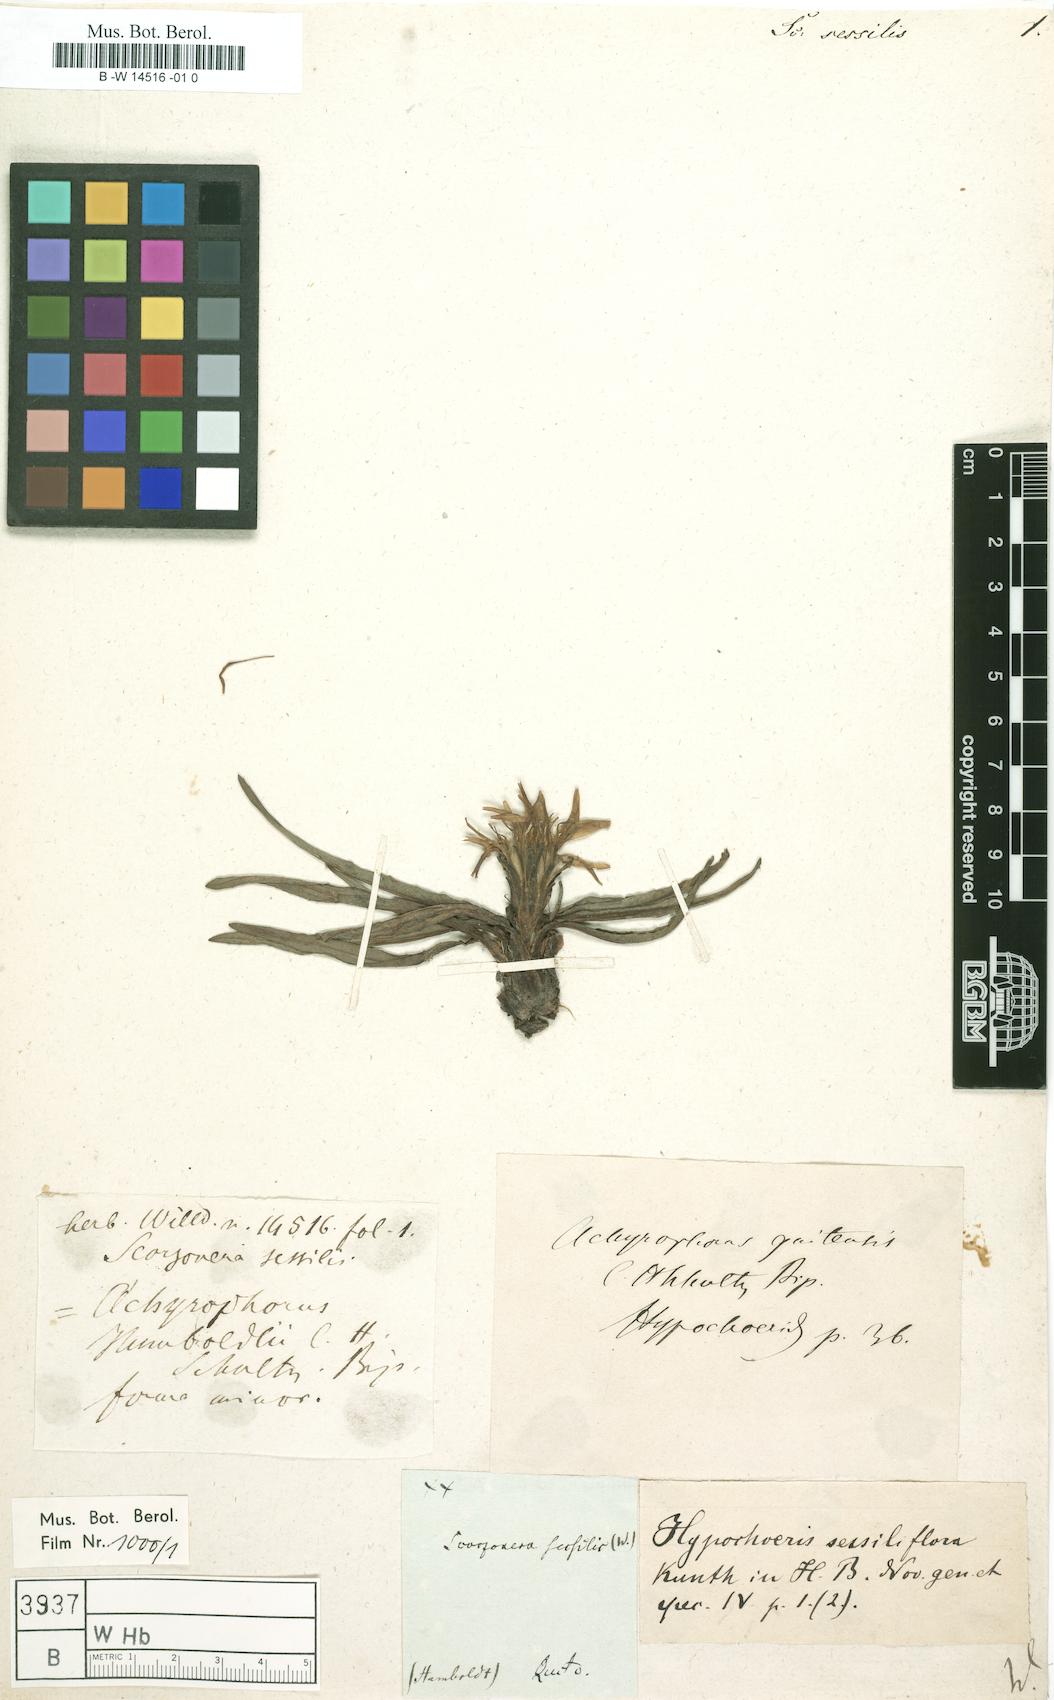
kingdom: Plantae
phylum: Tracheophyta
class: Magnoliopsida
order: Asterales
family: Asteraceae
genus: Hypochaeris
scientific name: Hypochaeris sessiliflora
